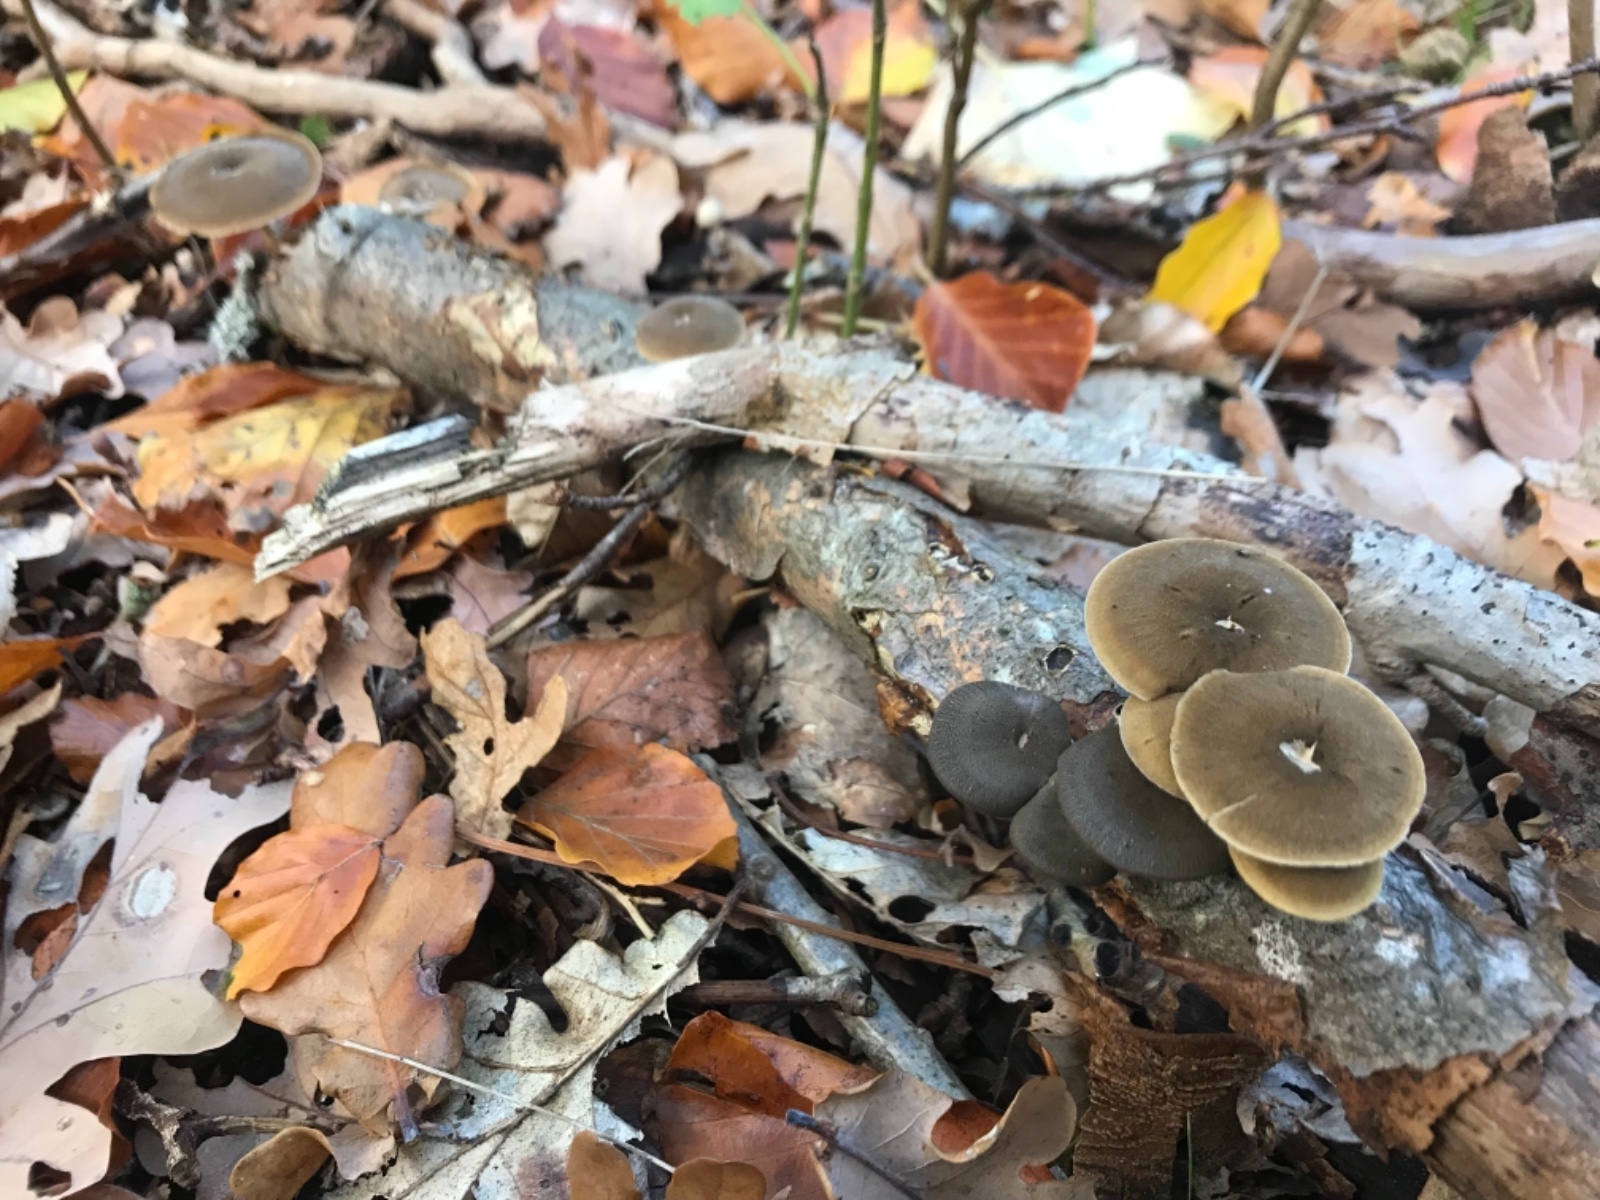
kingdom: Fungi
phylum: Basidiomycota
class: Agaricomycetes
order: Polyporales
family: Polyporaceae
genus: Lentinus
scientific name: Lentinus brumalis
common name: vinter-stilkporesvamp
